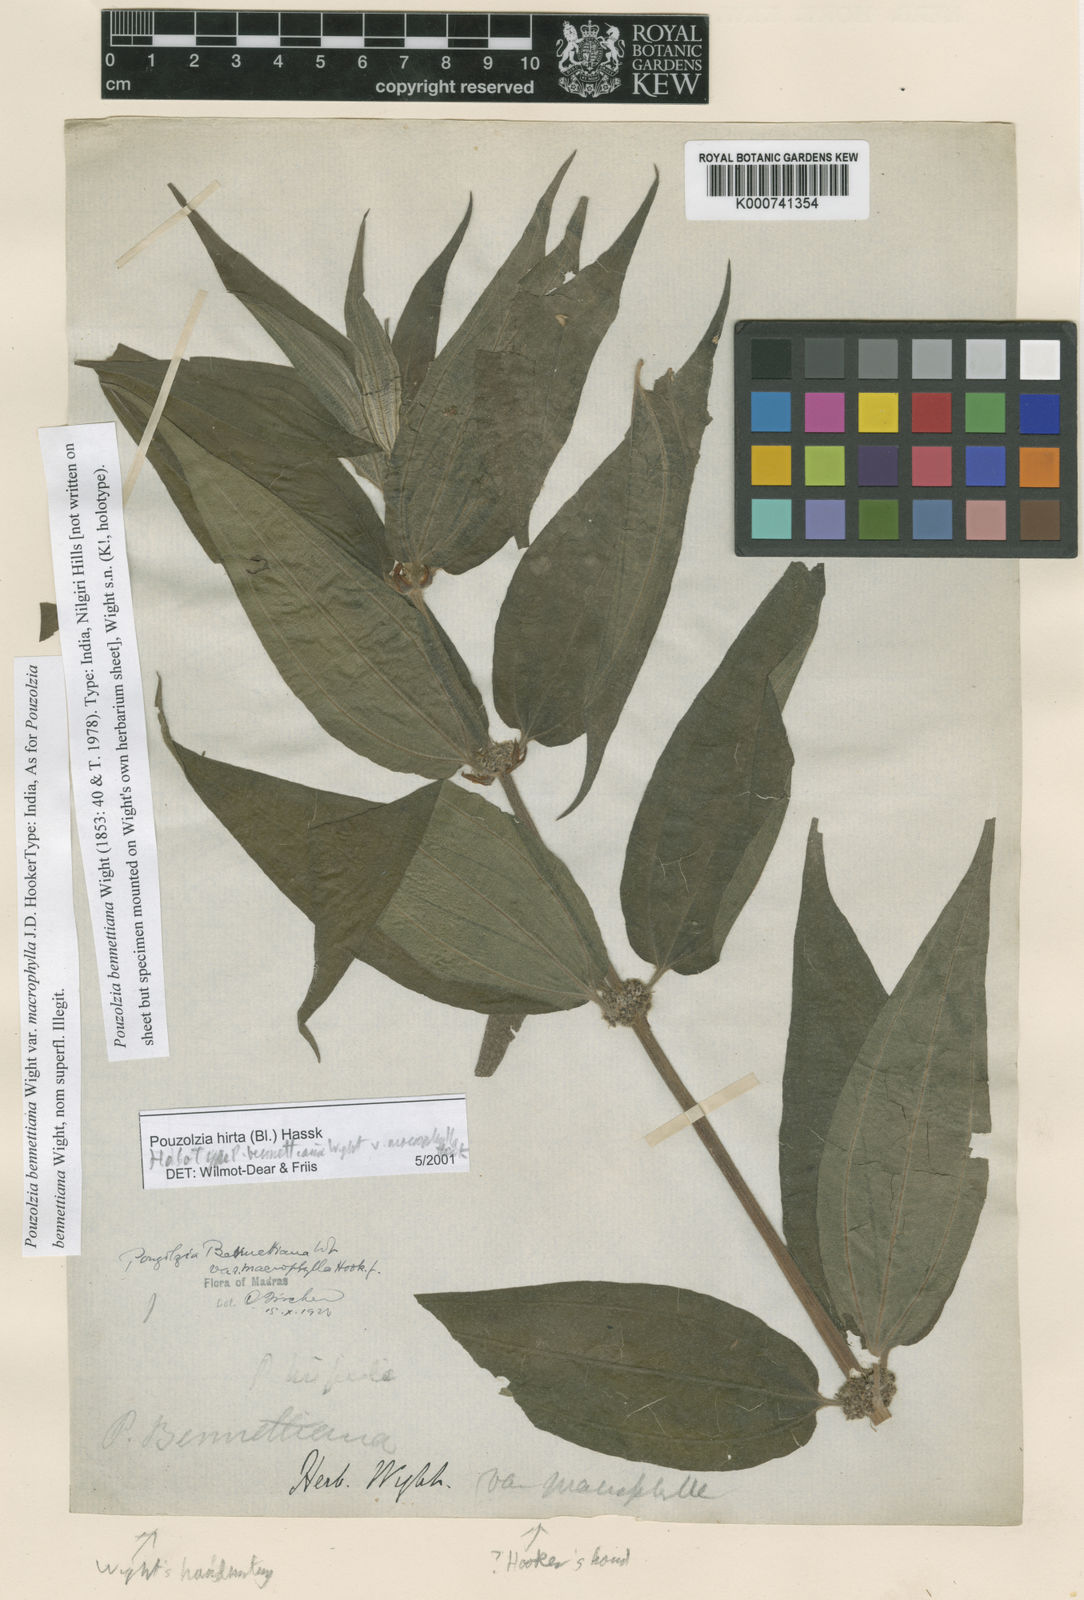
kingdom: Plantae
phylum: Tracheophyta
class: Magnoliopsida
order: Rosales
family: Urticaceae
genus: Gonostegia
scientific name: Gonostegia triandra
